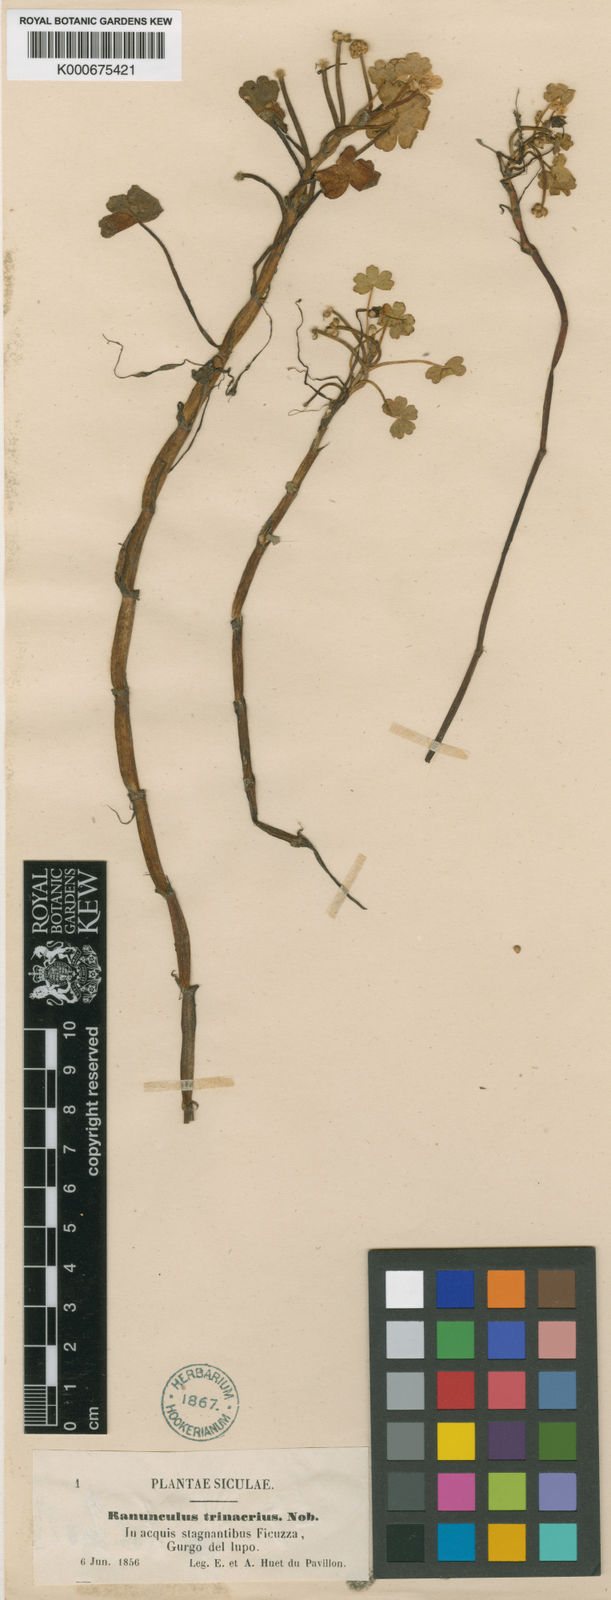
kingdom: Plantae
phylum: Tracheophyta
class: Magnoliopsida
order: Ranunculales
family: Ranunculaceae
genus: Ranunculus
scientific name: Ranunculus peltatus
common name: Pond water-crowfoot
